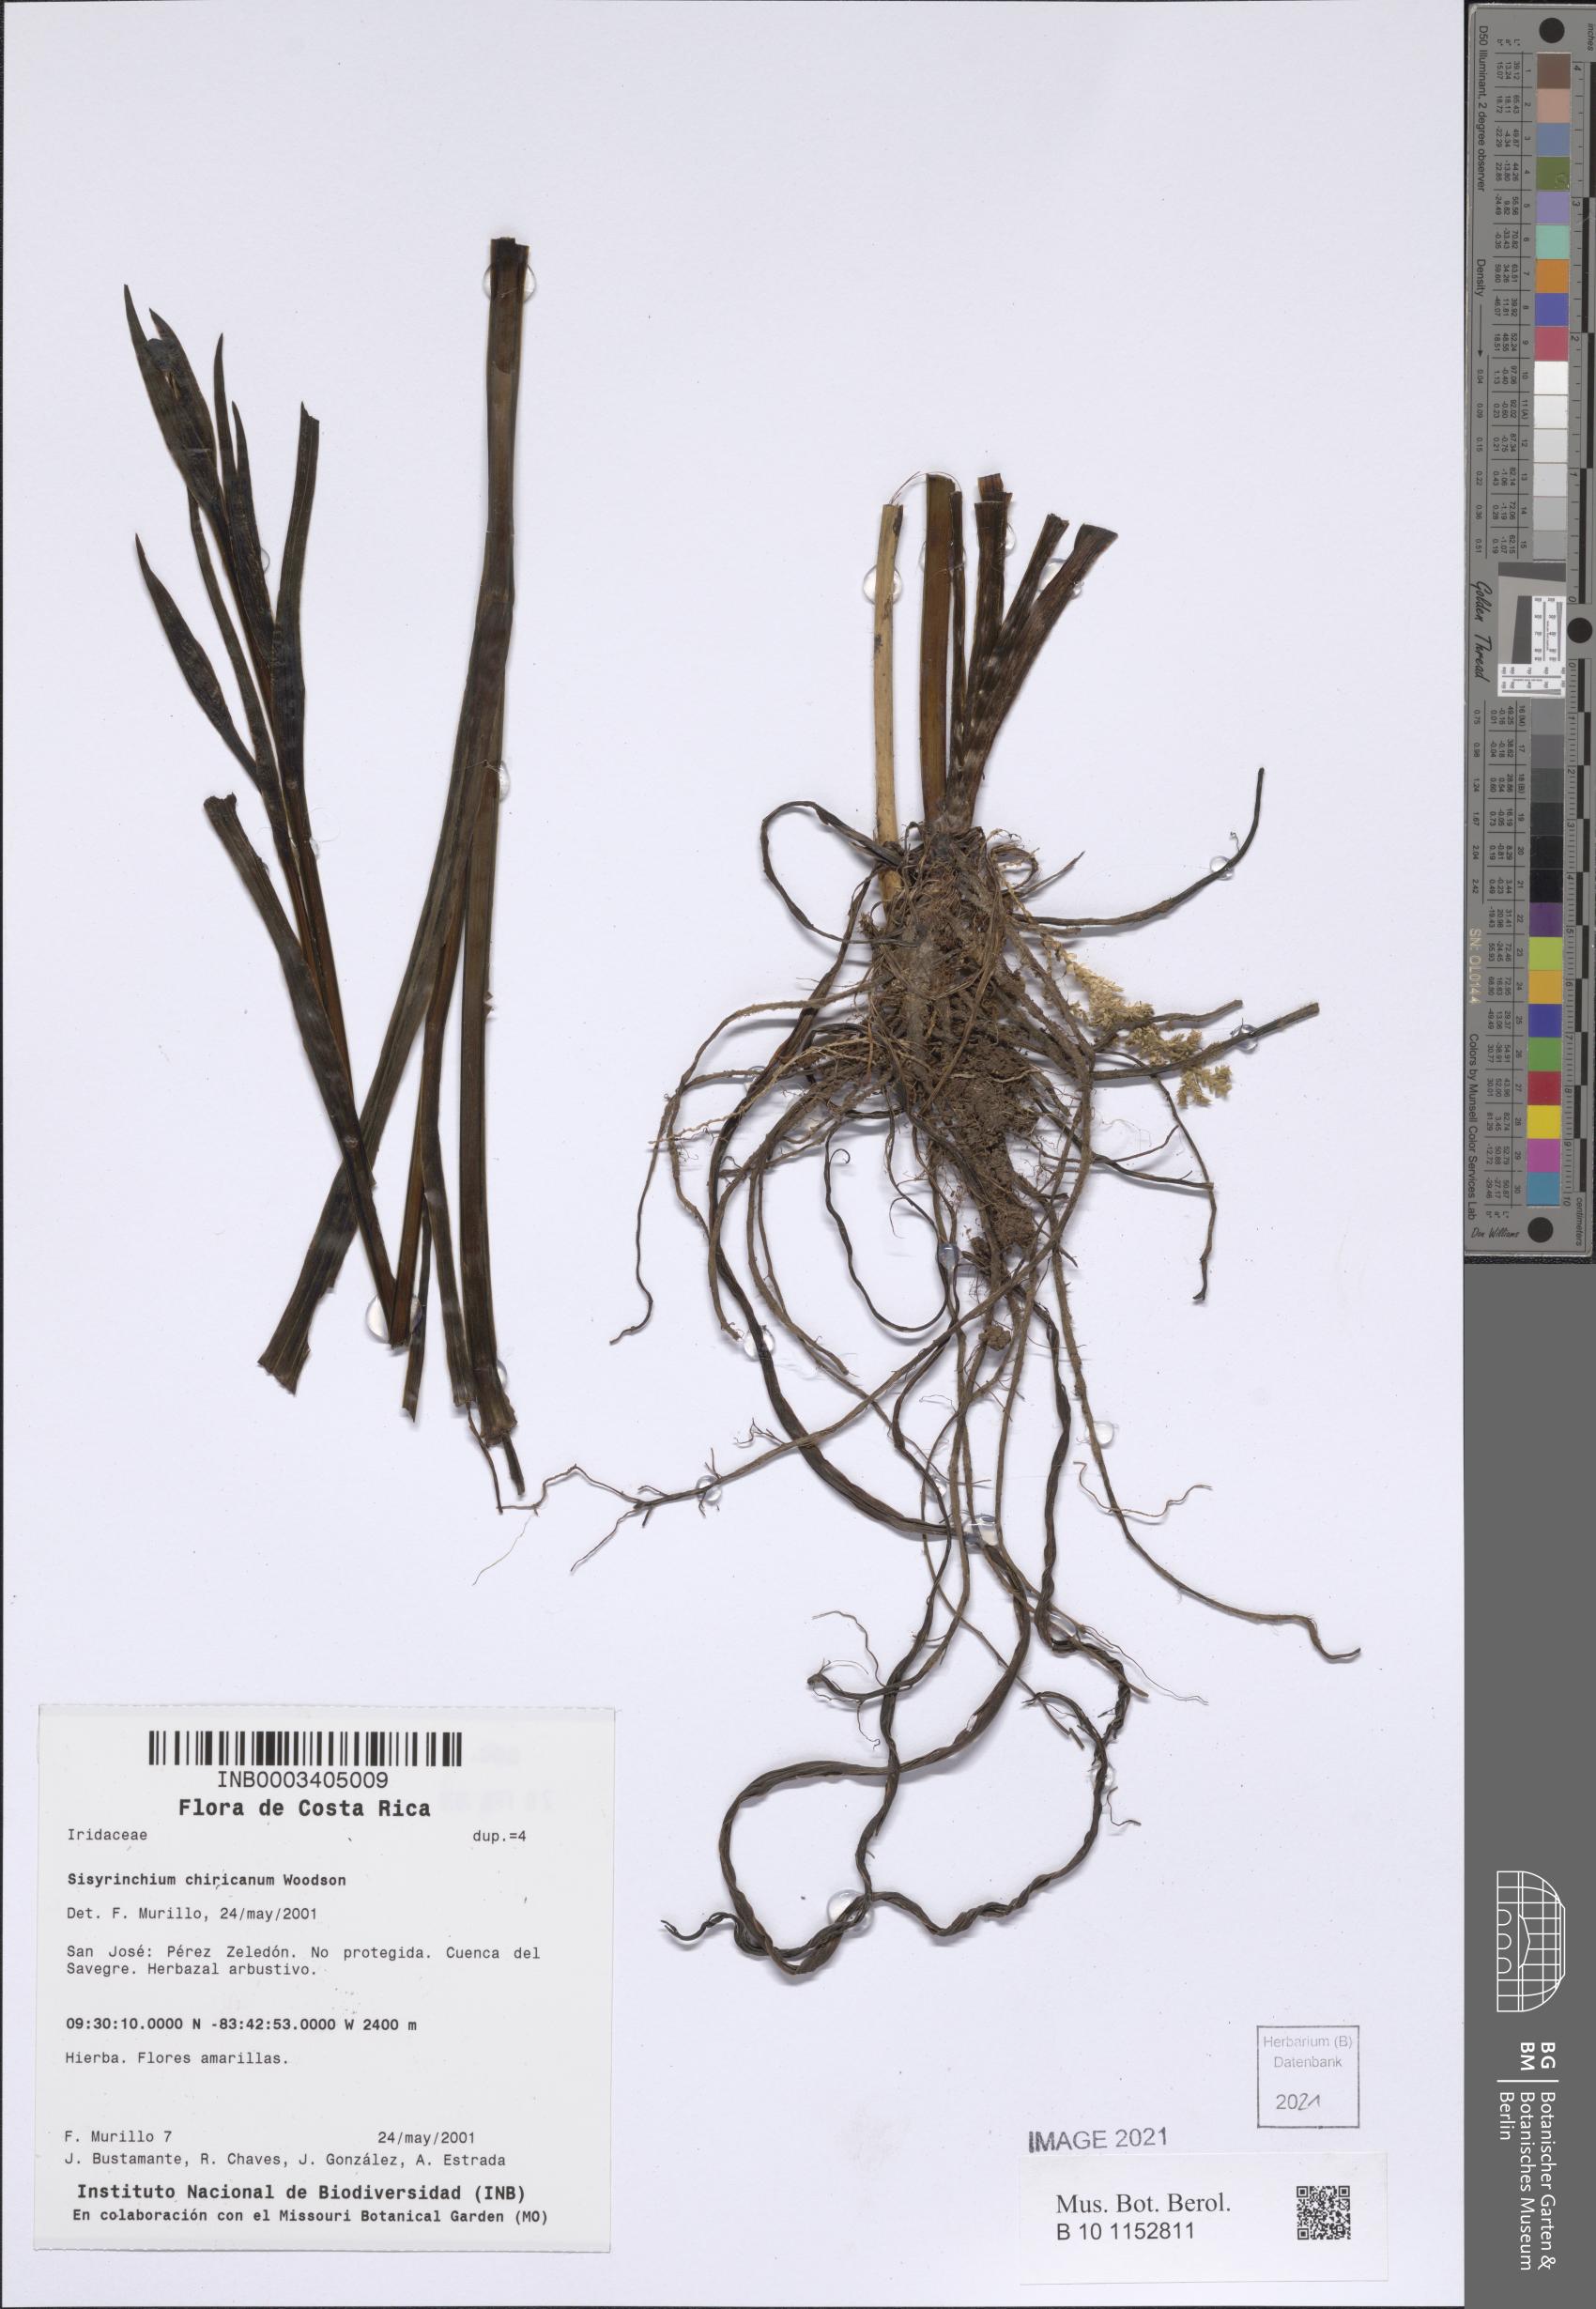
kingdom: Plantae
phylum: Tracheophyta
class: Liliopsida
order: Asparagales
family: Iridaceae
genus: Sisyrinchium
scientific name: Sisyrinchium chiricanum
